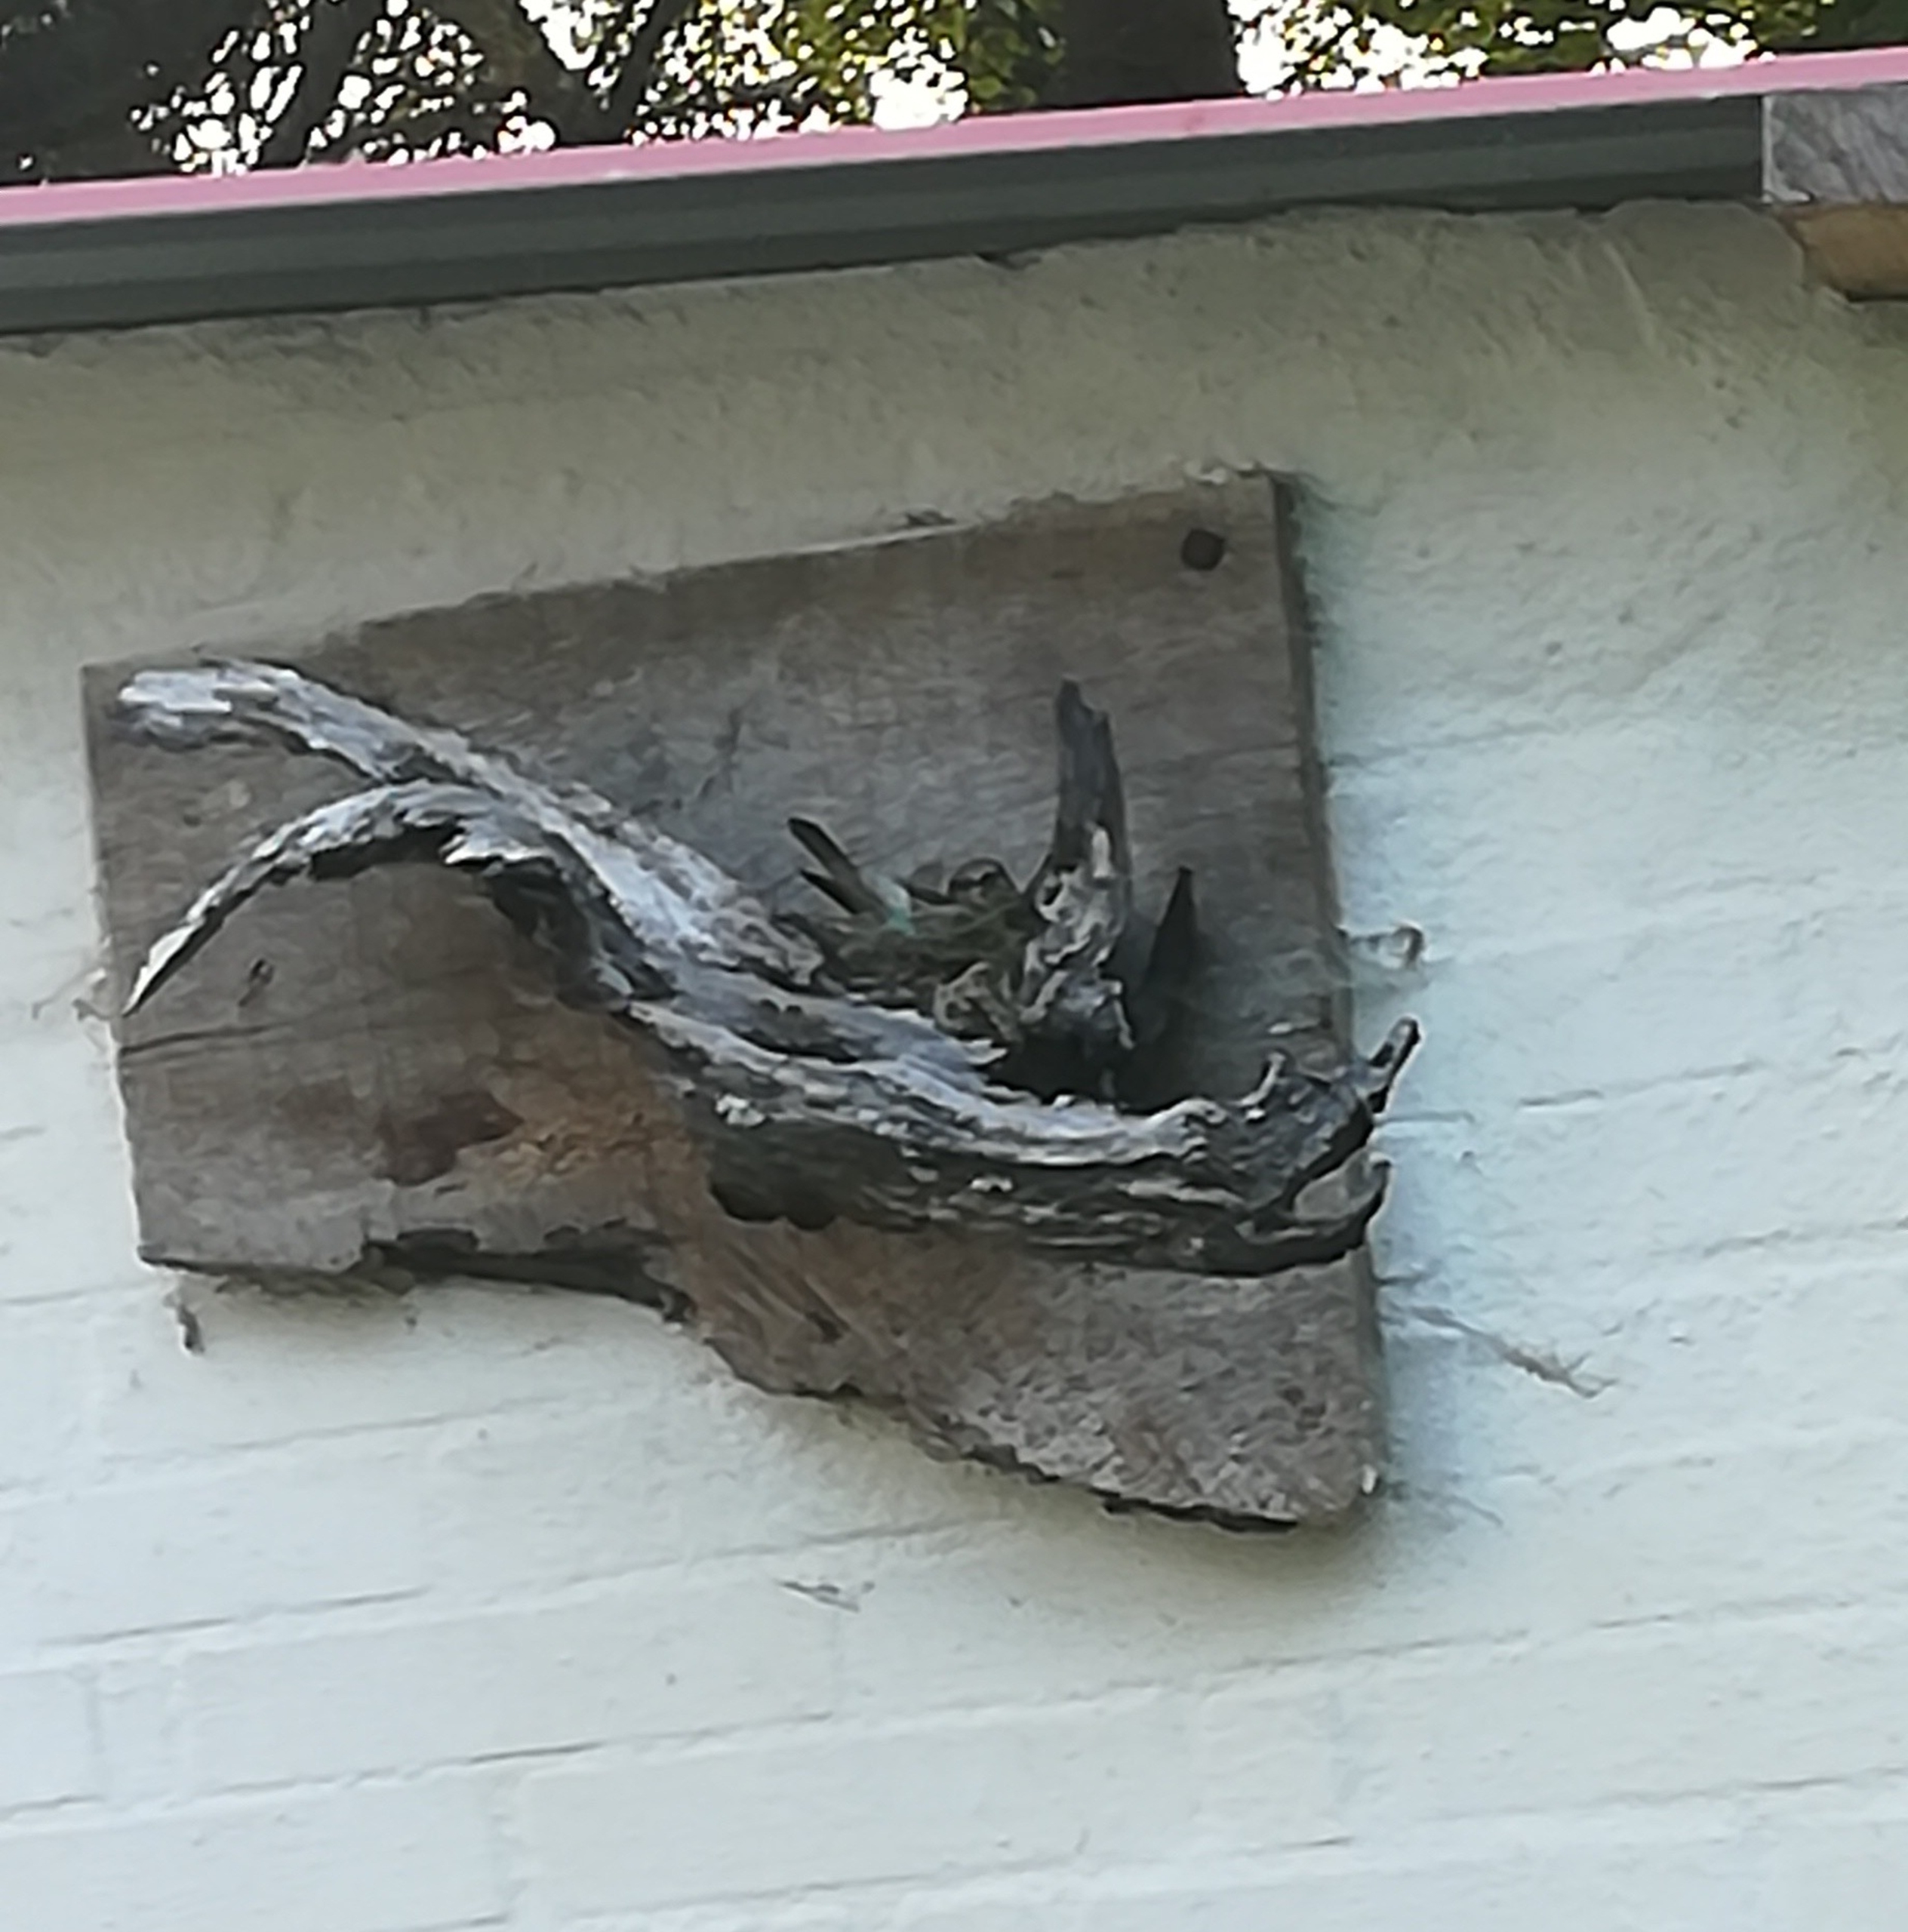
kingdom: Animalia
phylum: Chordata
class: Aves
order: Passeriformes
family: Muscicapidae
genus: Muscicapa
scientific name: Muscicapa striata
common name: Grå fluesnapper
